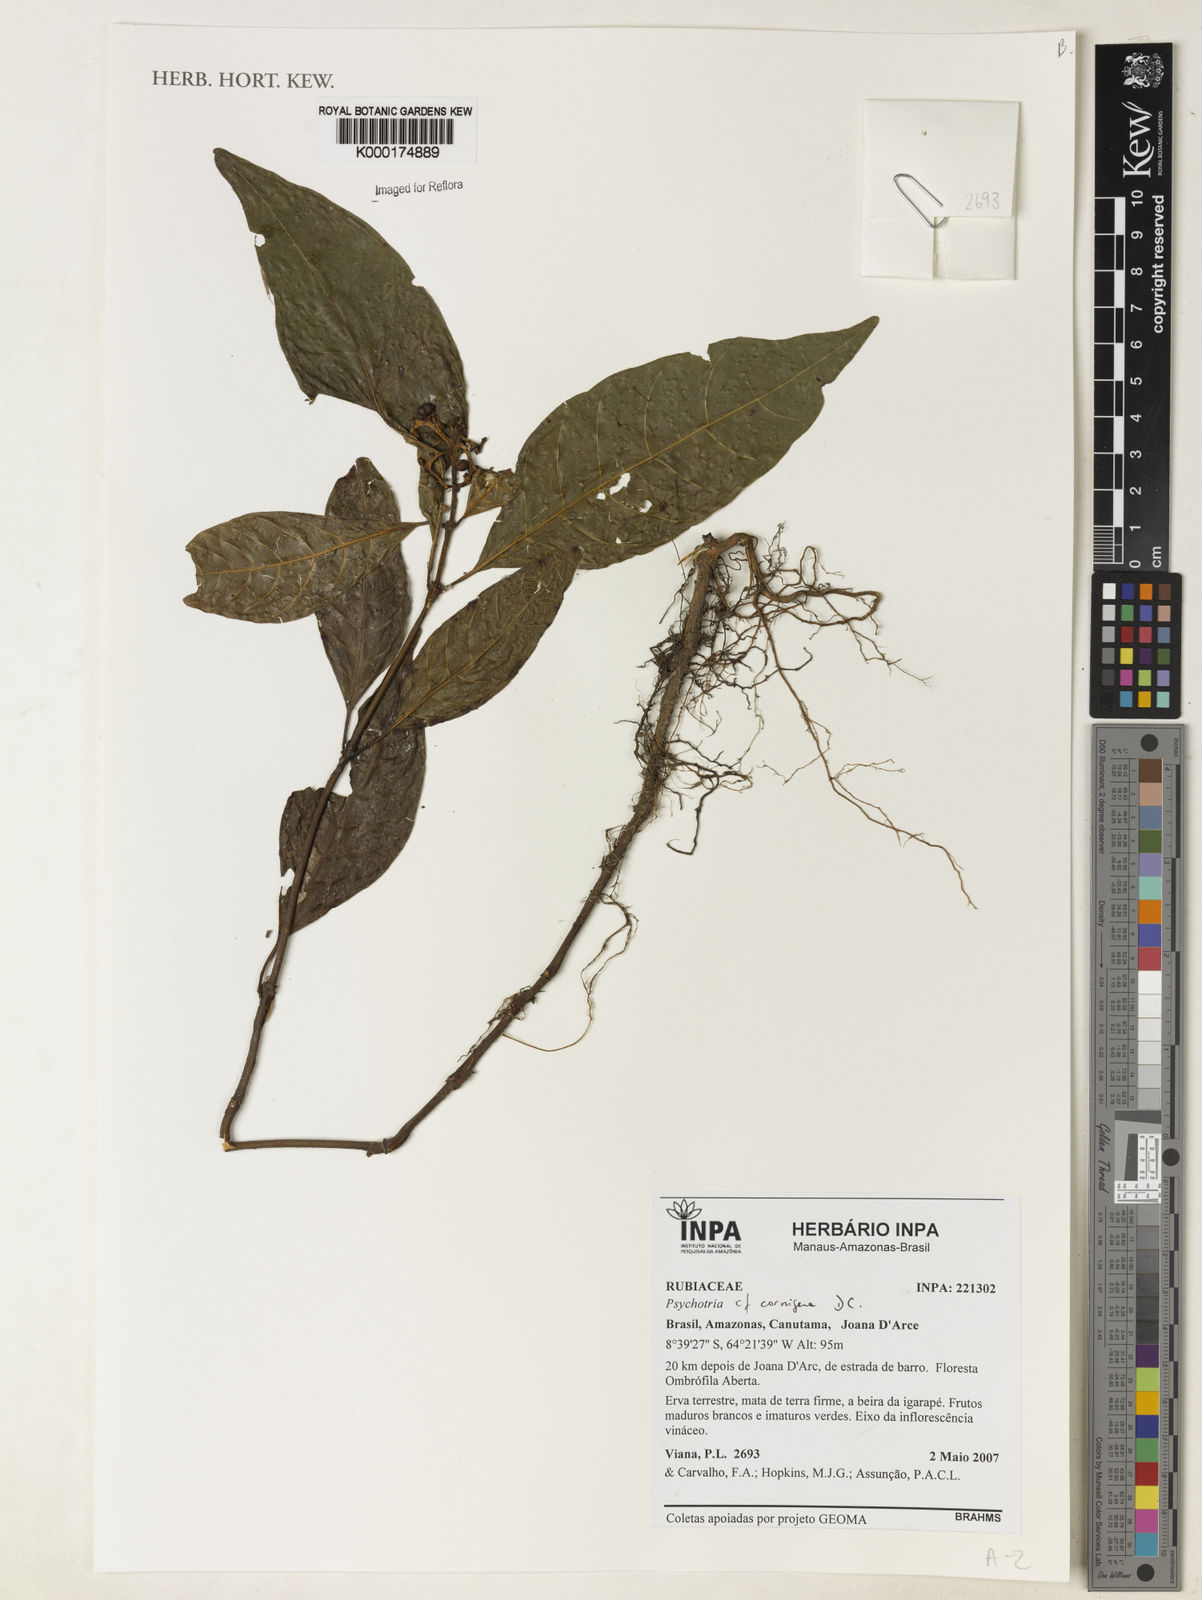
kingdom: Plantae
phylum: Tracheophyta
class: Magnoliopsida
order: Gentianales
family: Rubiaceae
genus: Palicourea
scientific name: Palicourea subcuspidata
